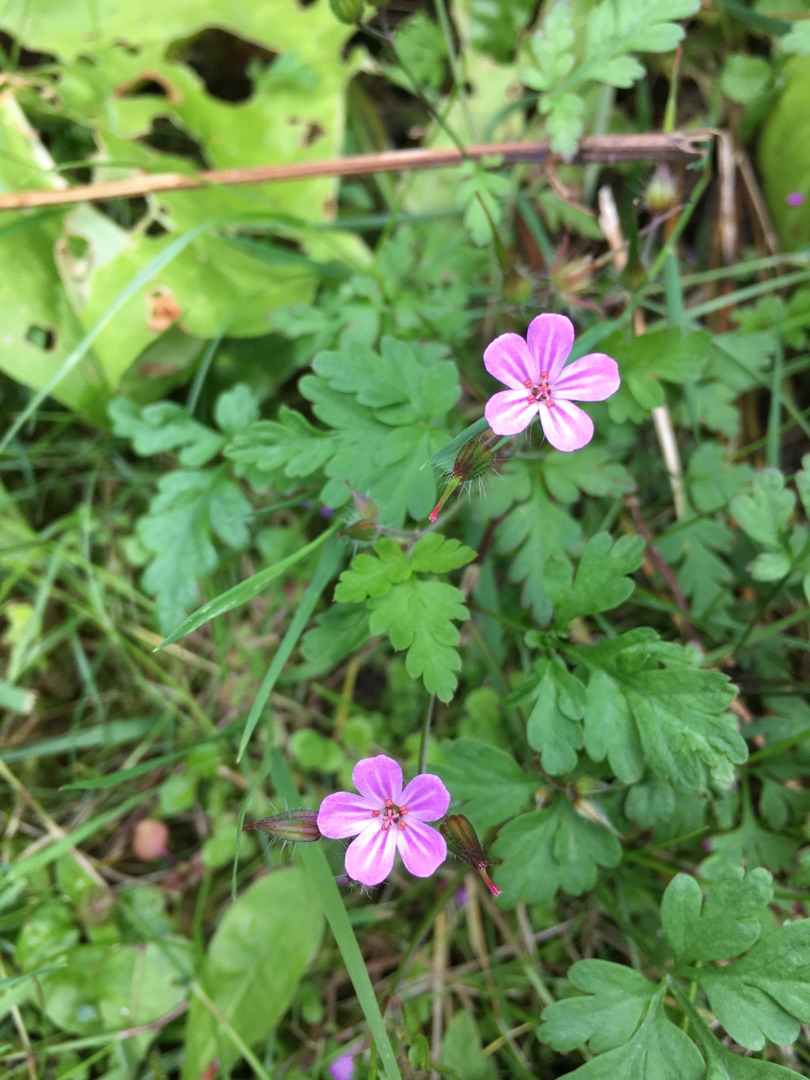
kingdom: Plantae
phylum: Tracheophyta
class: Magnoliopsida
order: Geraniales
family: Geraniaceae
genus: Geranium
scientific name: Geranium robertianum
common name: Stinkende storkenæb
